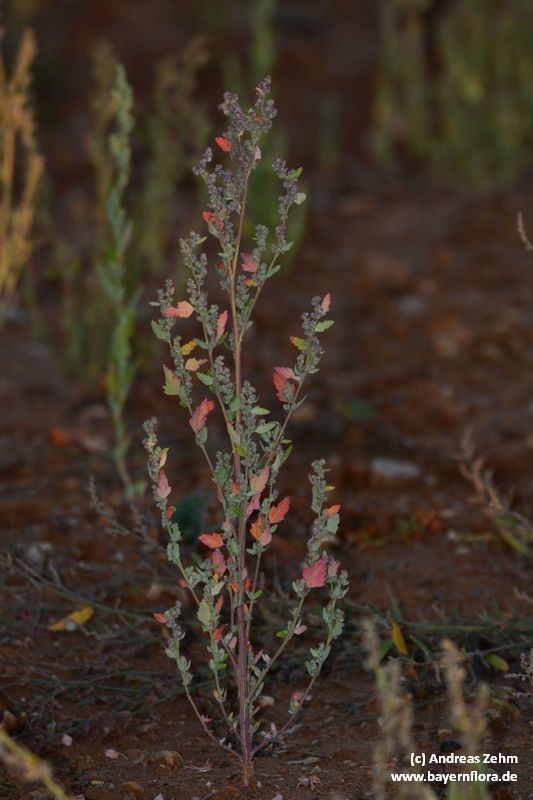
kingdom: Plantae
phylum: Tracheophyta
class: Magnoliopsida
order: Caryophyllales
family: Amaranthaceae
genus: Chenopodium
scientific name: Chenopodium album
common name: Fat-hen
